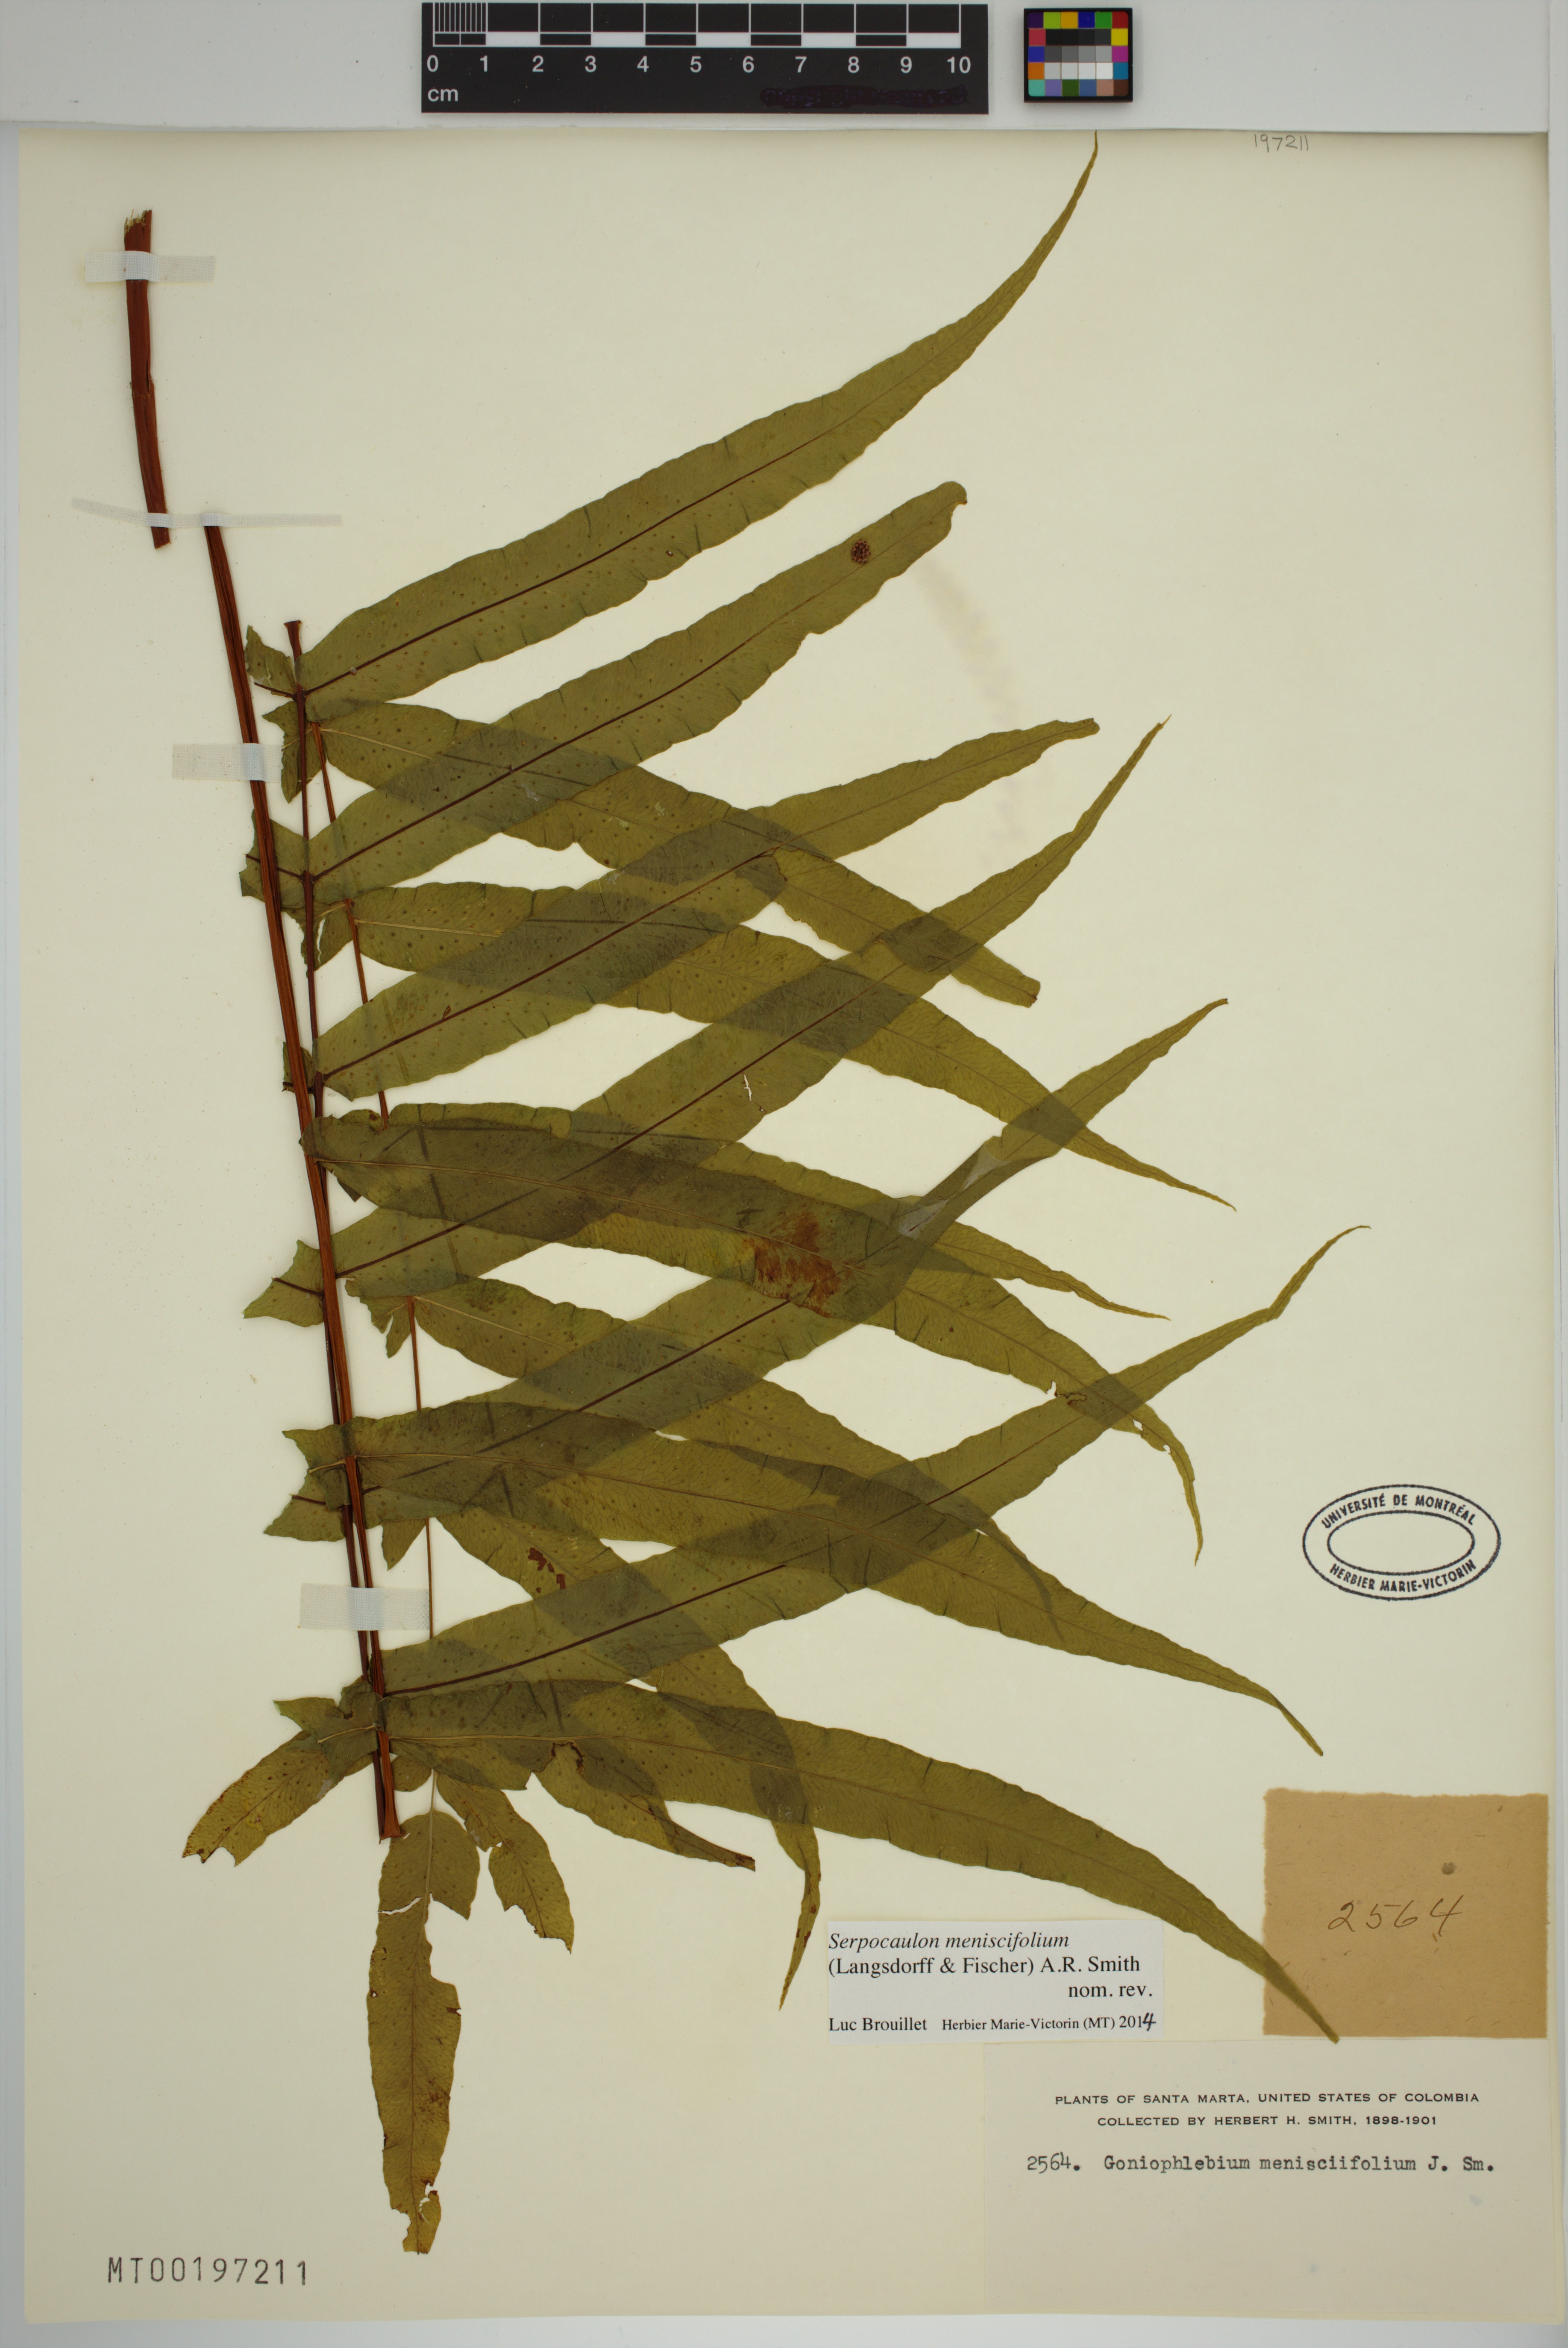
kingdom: Plantae
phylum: Tracheophyta
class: Polypodiopsida
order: Polypodiales
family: Polypodiaceae
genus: Serpocaulon
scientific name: Serpocaulon menisciifolium
